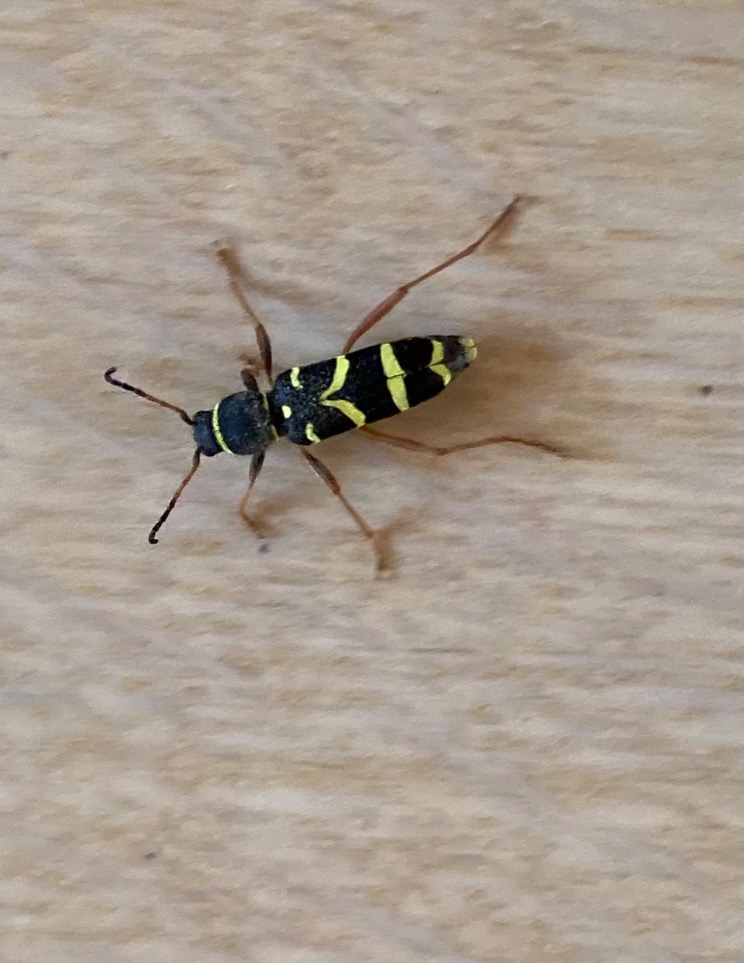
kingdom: Animalia
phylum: Arthropoda
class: Insecta
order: Coleoptera
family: Cerambycidae
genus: Clytus
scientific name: Clytus arietis
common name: Lille hvepsebuk
